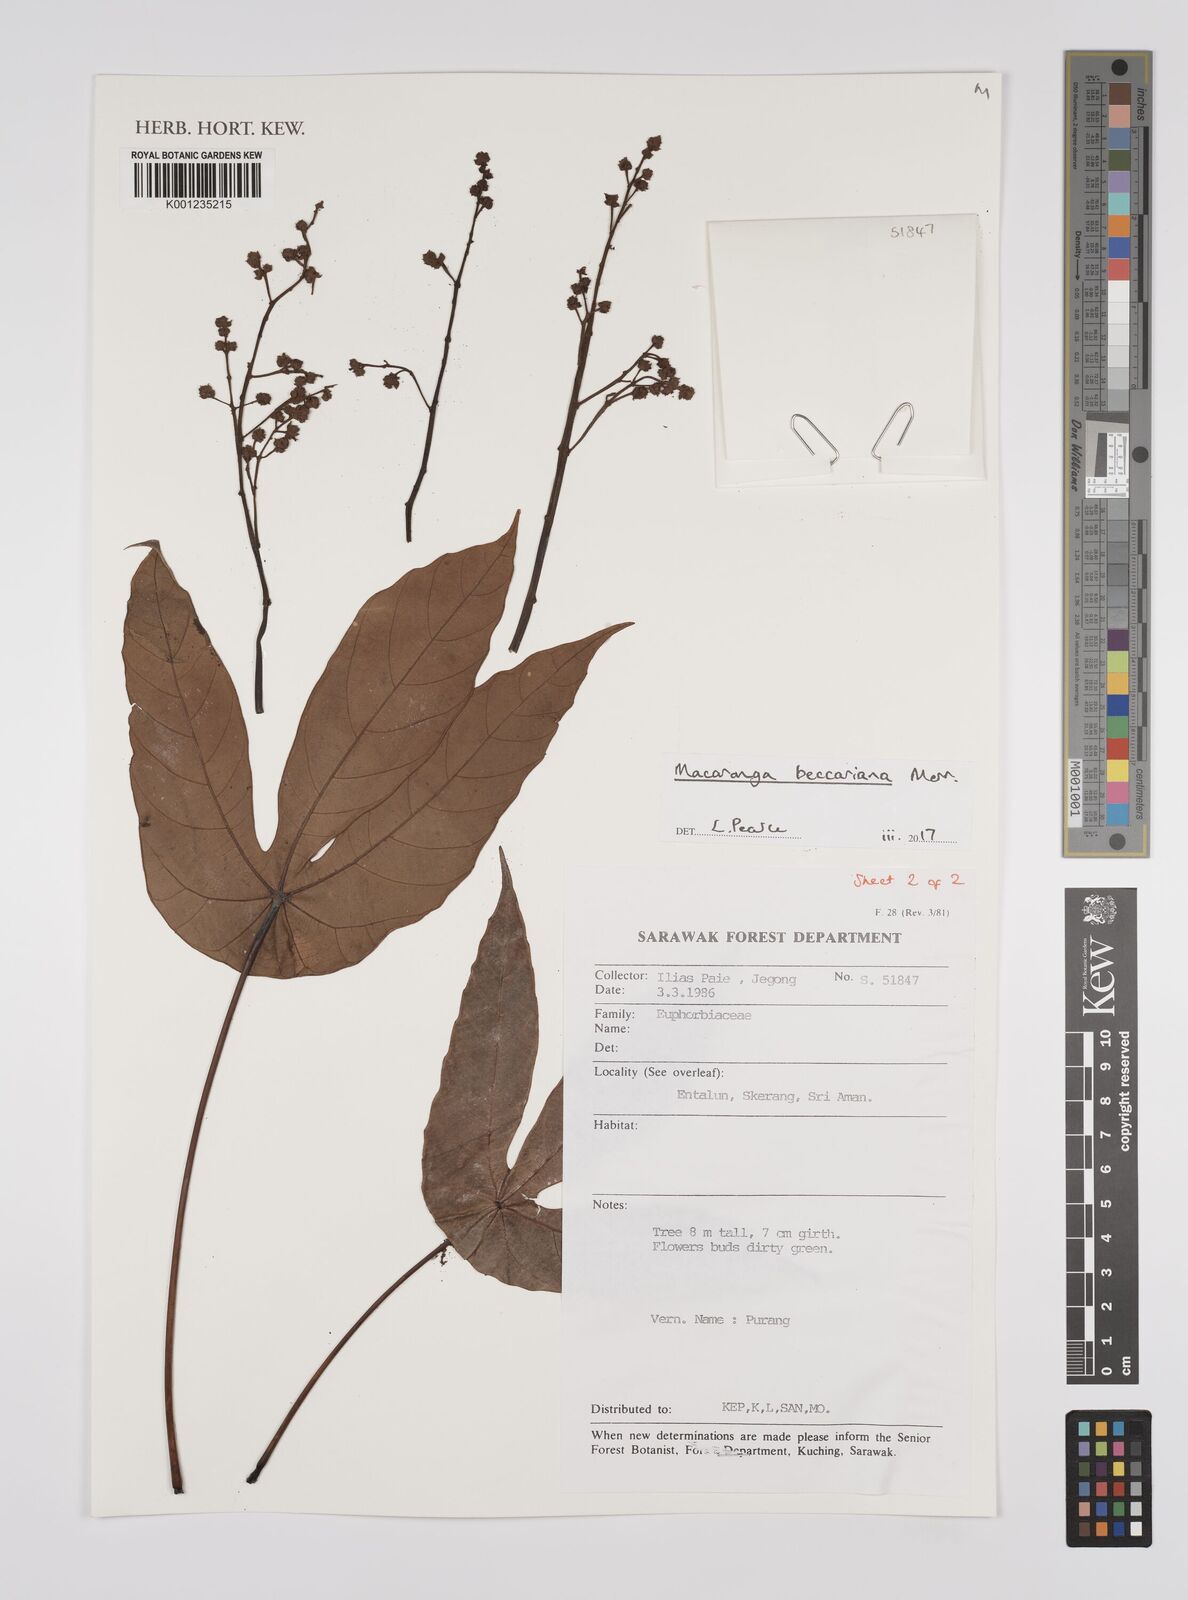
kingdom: Plantae
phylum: Tracheophyta
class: Magnoliopsida
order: Malpighiales
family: Euphorbiaceae
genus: Macaranga
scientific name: Macaranga beccariana
